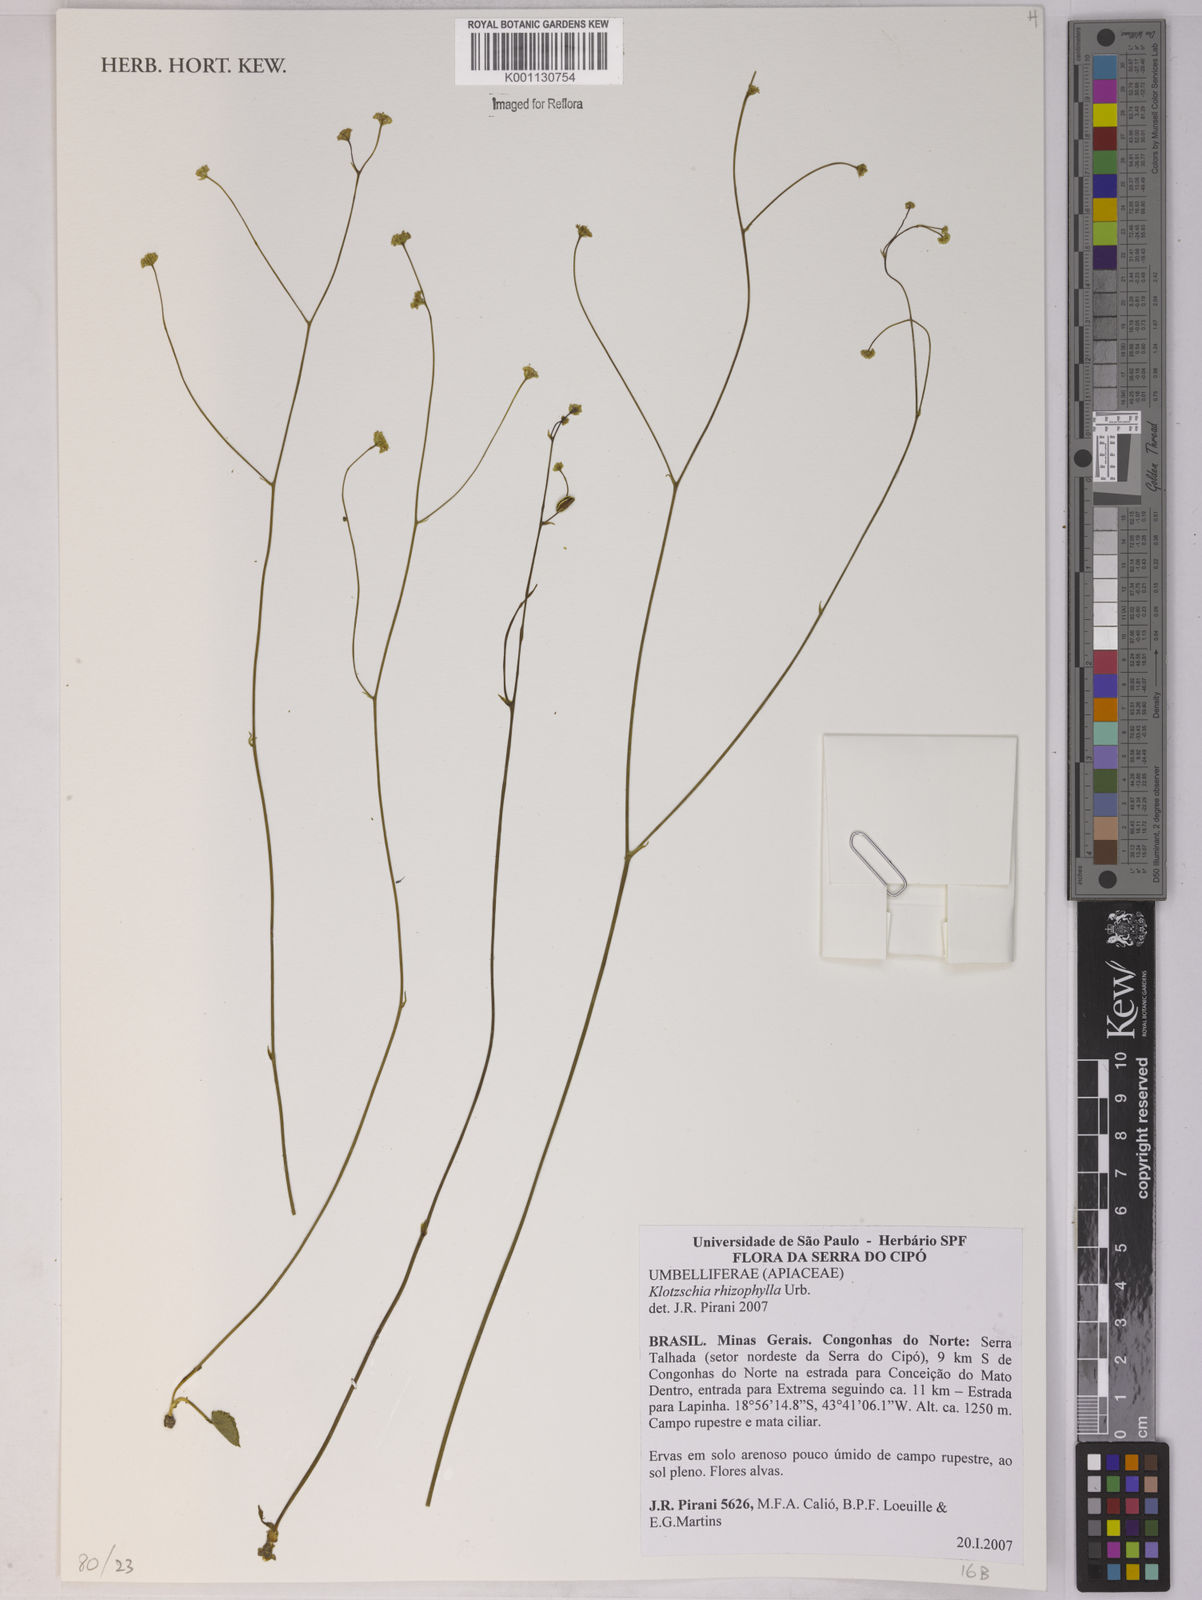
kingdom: Plantae
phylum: Tracheophyta
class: Magnoliopsida
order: Apiales
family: Apiaceae
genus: Klotzschia
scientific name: Klotzschia rhizophylla
